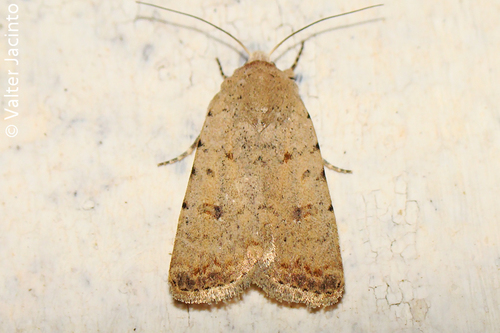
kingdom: Animalia
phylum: Arthropoda
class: Insecta
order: Lepidoptera
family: Noctuidae
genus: Caradrina
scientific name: Caradrina clavipalpis
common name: Pale mottled willow
